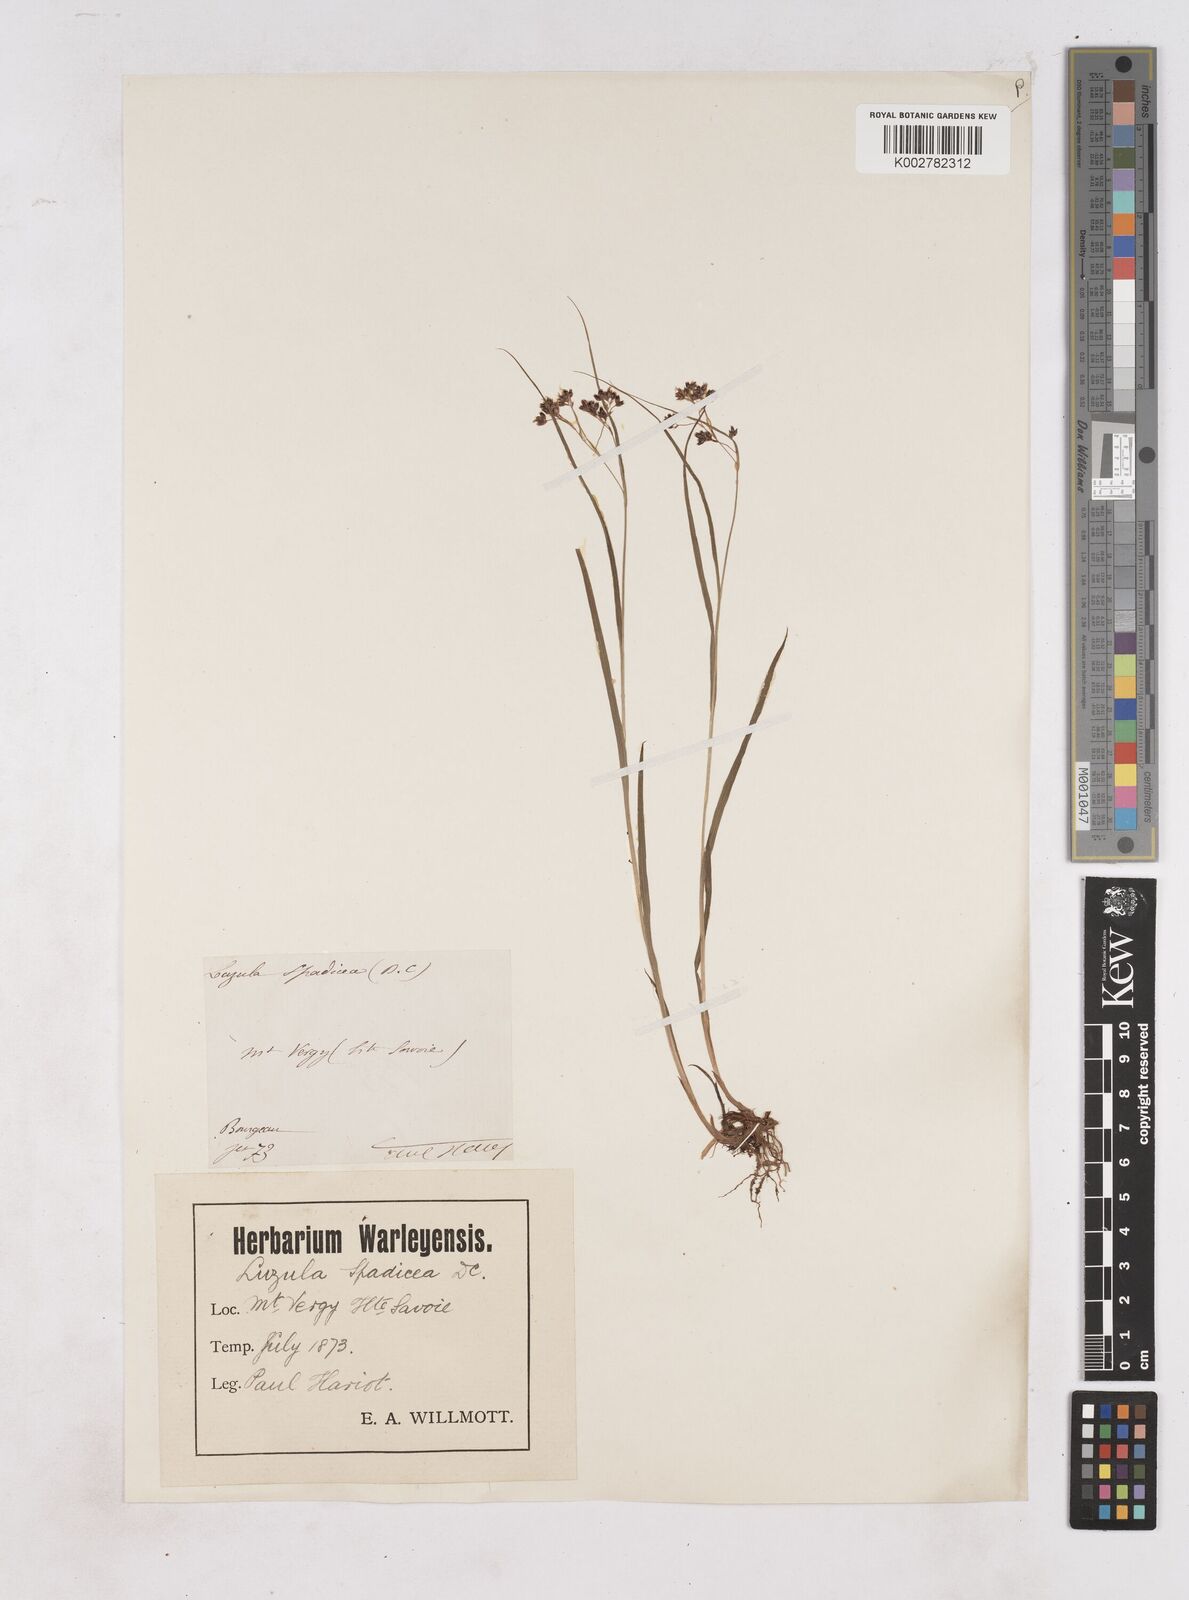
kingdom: Plantae
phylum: Tracheophyta
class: Liliopsida
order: Poales
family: Juncaceae
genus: Luzula
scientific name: Luzula alpinopilosa
